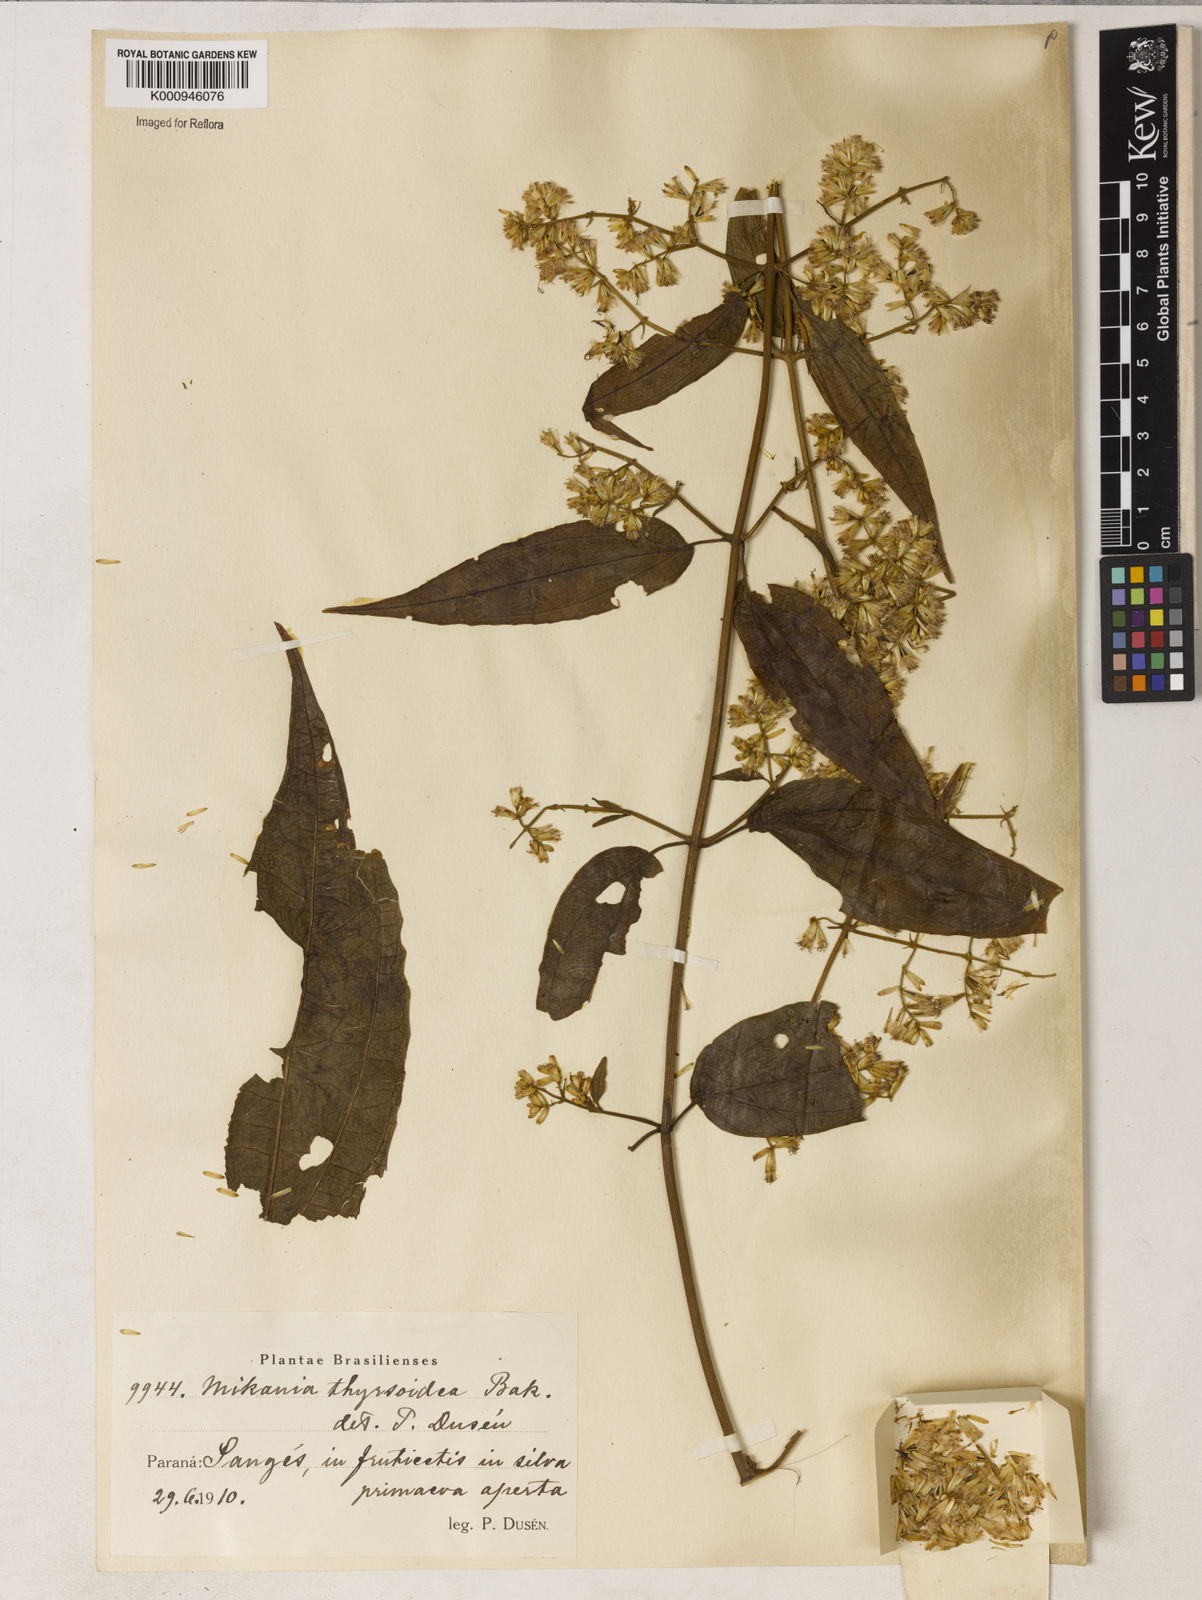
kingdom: Plantae
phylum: Tracheophyta
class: Magnoliopsida
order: Asterales
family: Asteraceae
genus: Mikania
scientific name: Mikania thyrsoidea
